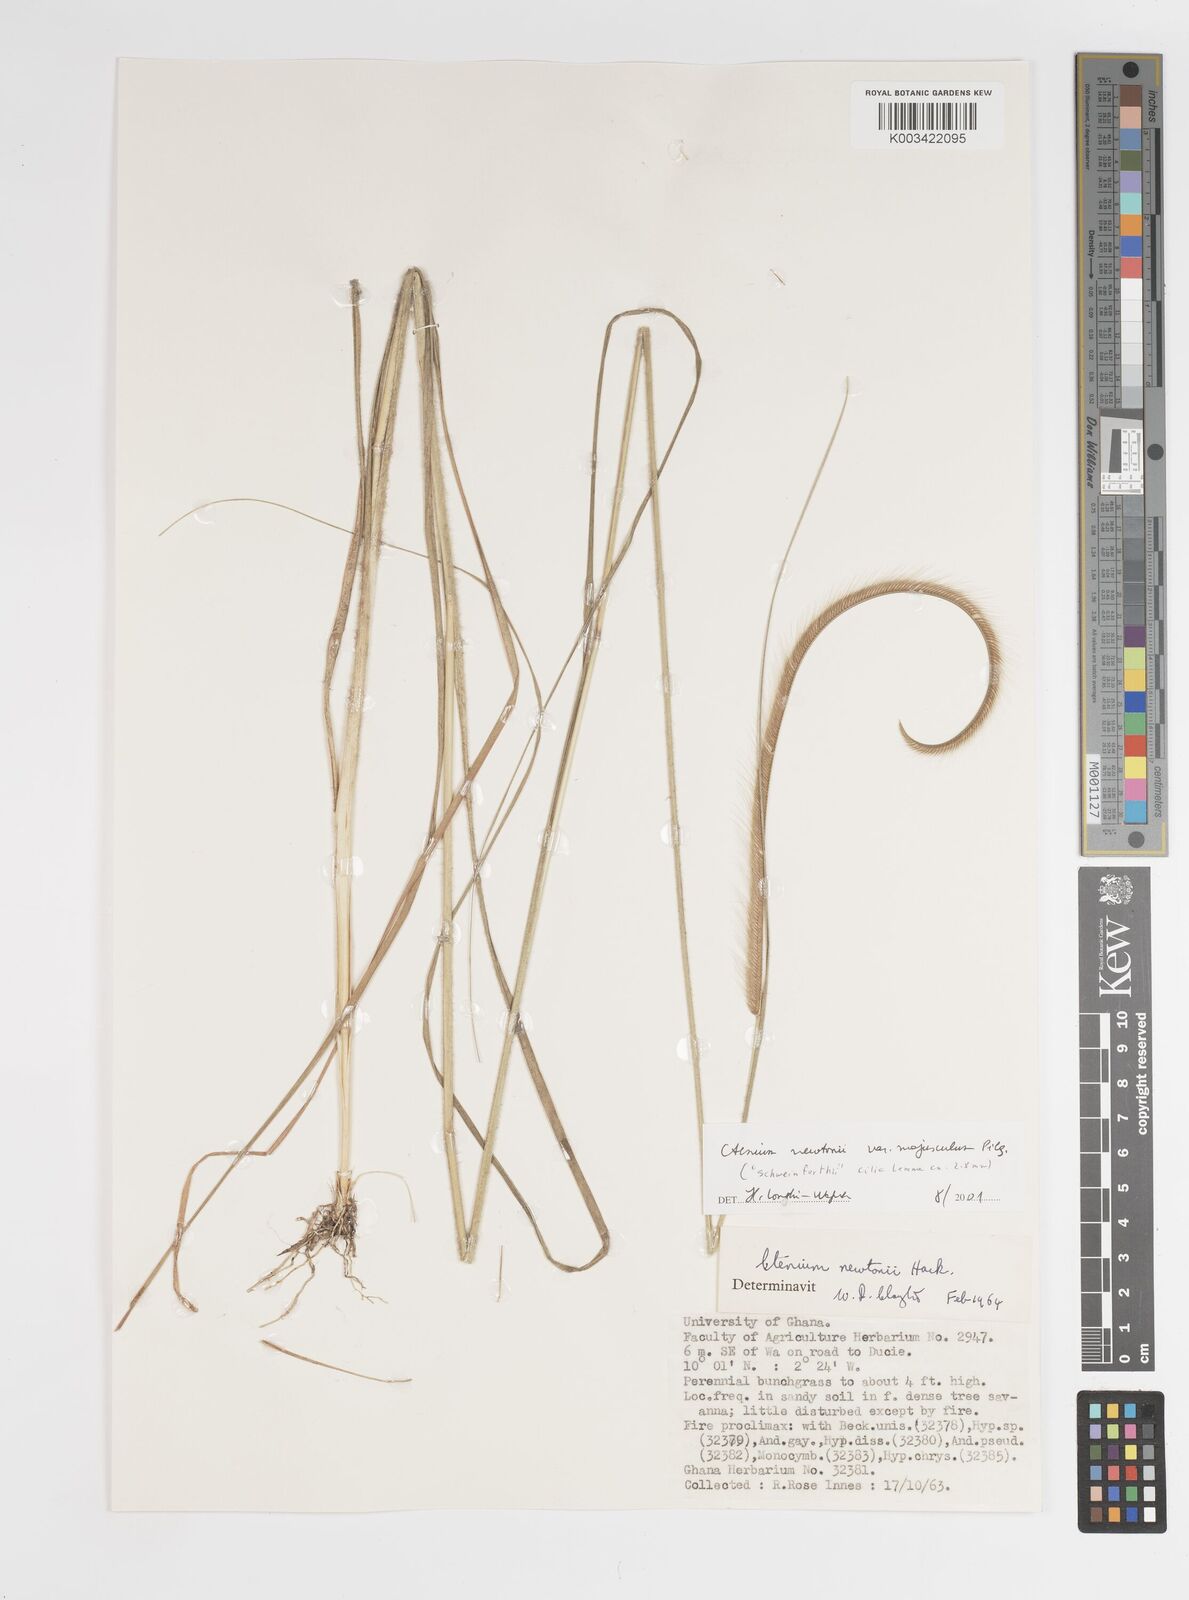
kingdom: Plantae
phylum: Tracheophyta
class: Liliopsida
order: Poales
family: Poaceae
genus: Ctenium
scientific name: Ctenium newtonii
